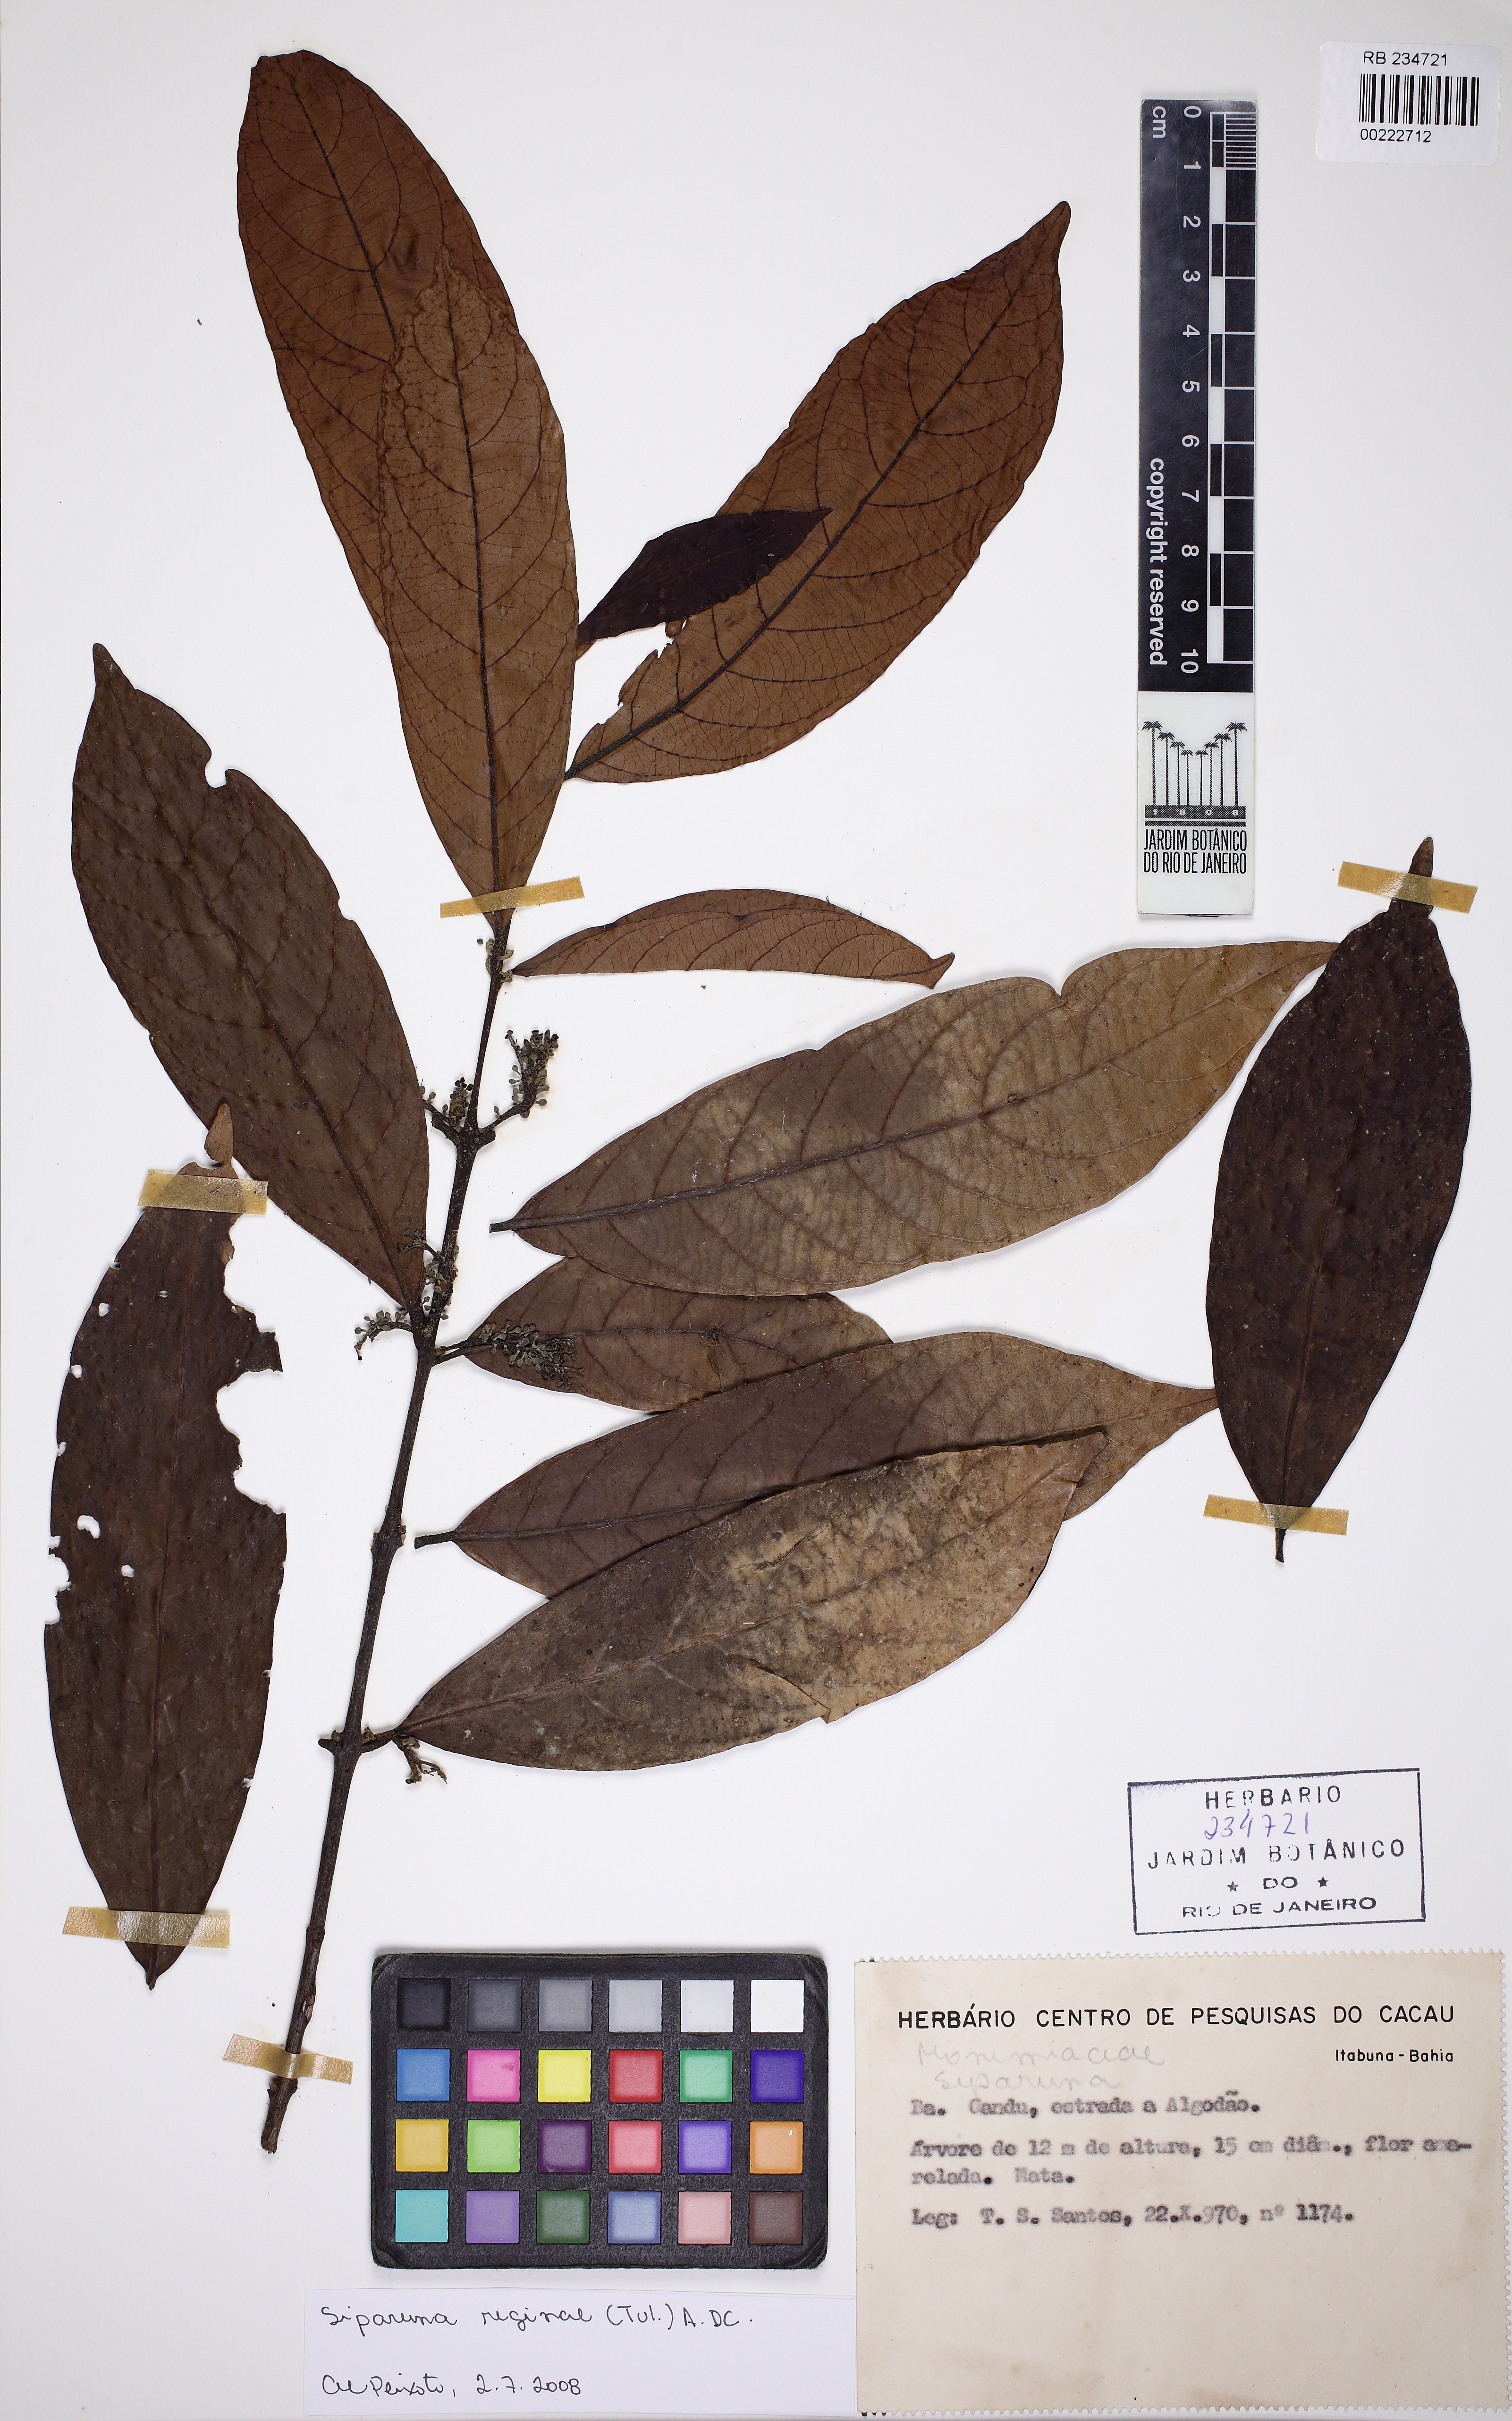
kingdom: Plantae
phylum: Tracheophyta
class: Magnoliopsida
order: Laurales
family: Siparunaceae
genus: Siparuna
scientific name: Siparuna reginae
